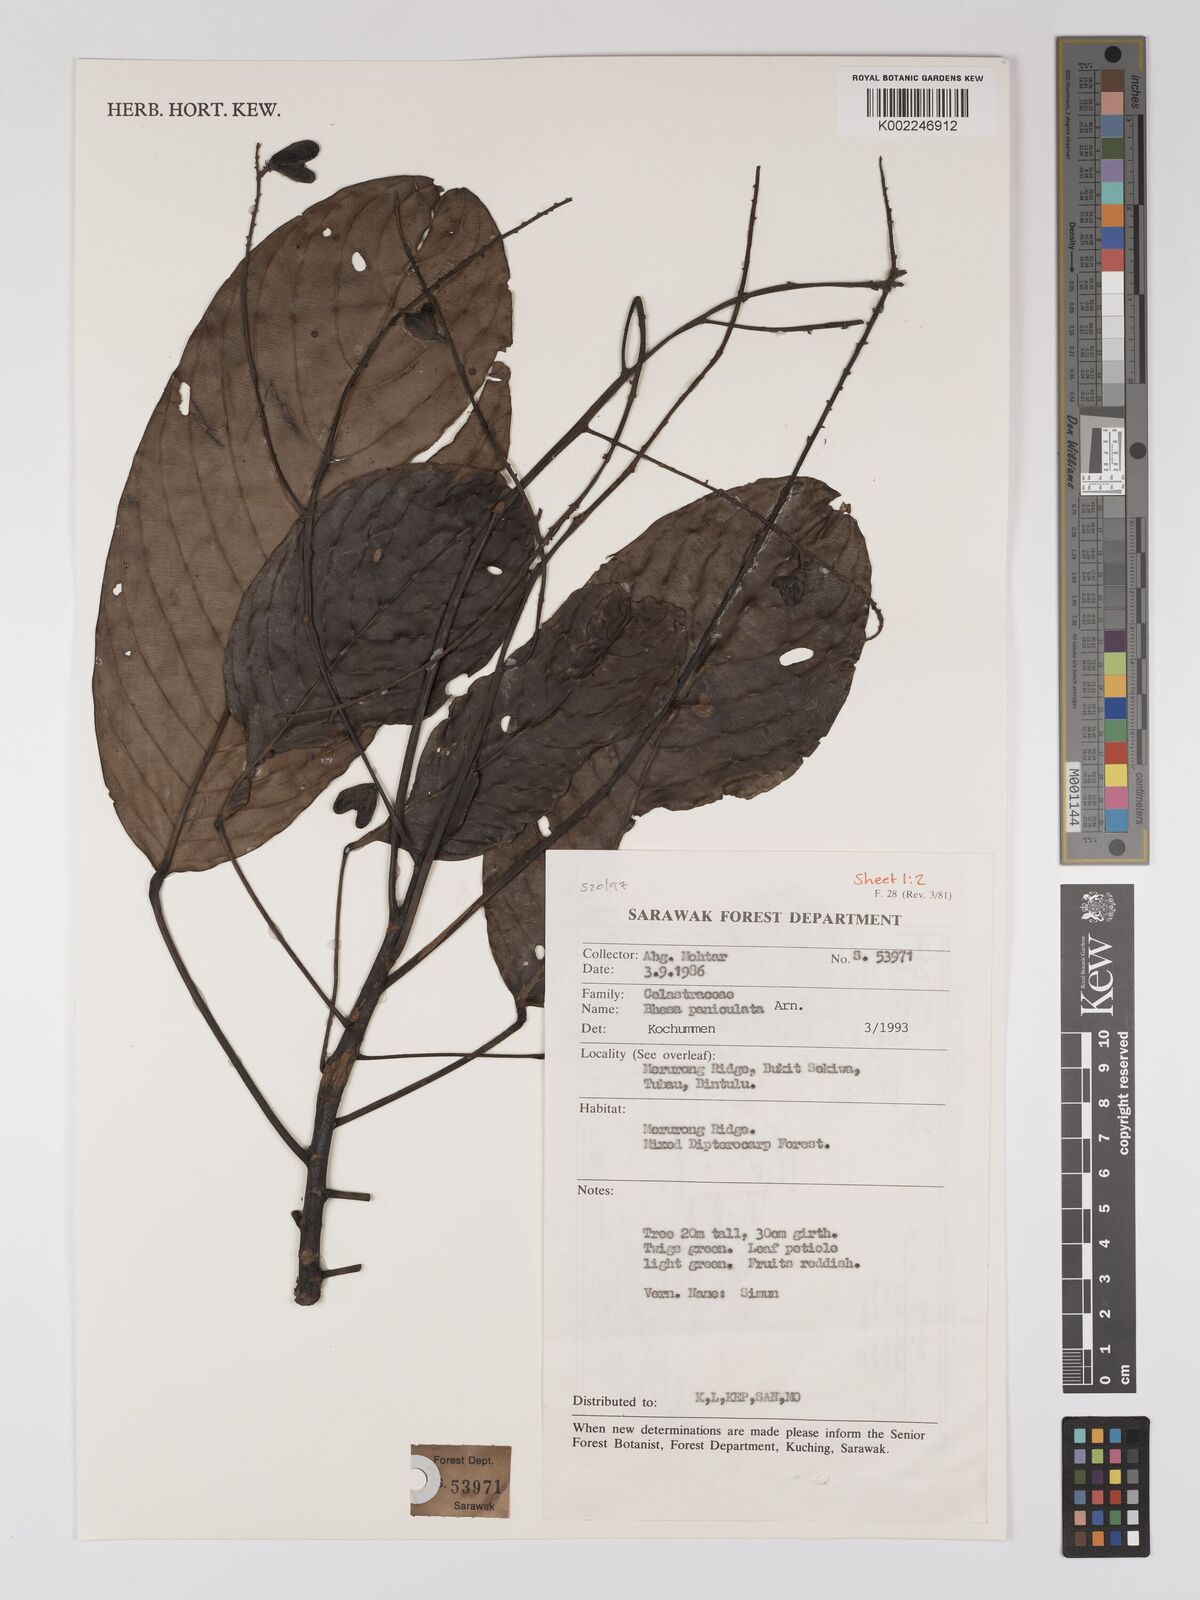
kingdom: Plantae
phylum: Tracheophyta
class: Magnoliopsida
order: Malpighiales
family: Centroplacaceae
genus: Bhesa
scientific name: Bhesa paniculata
